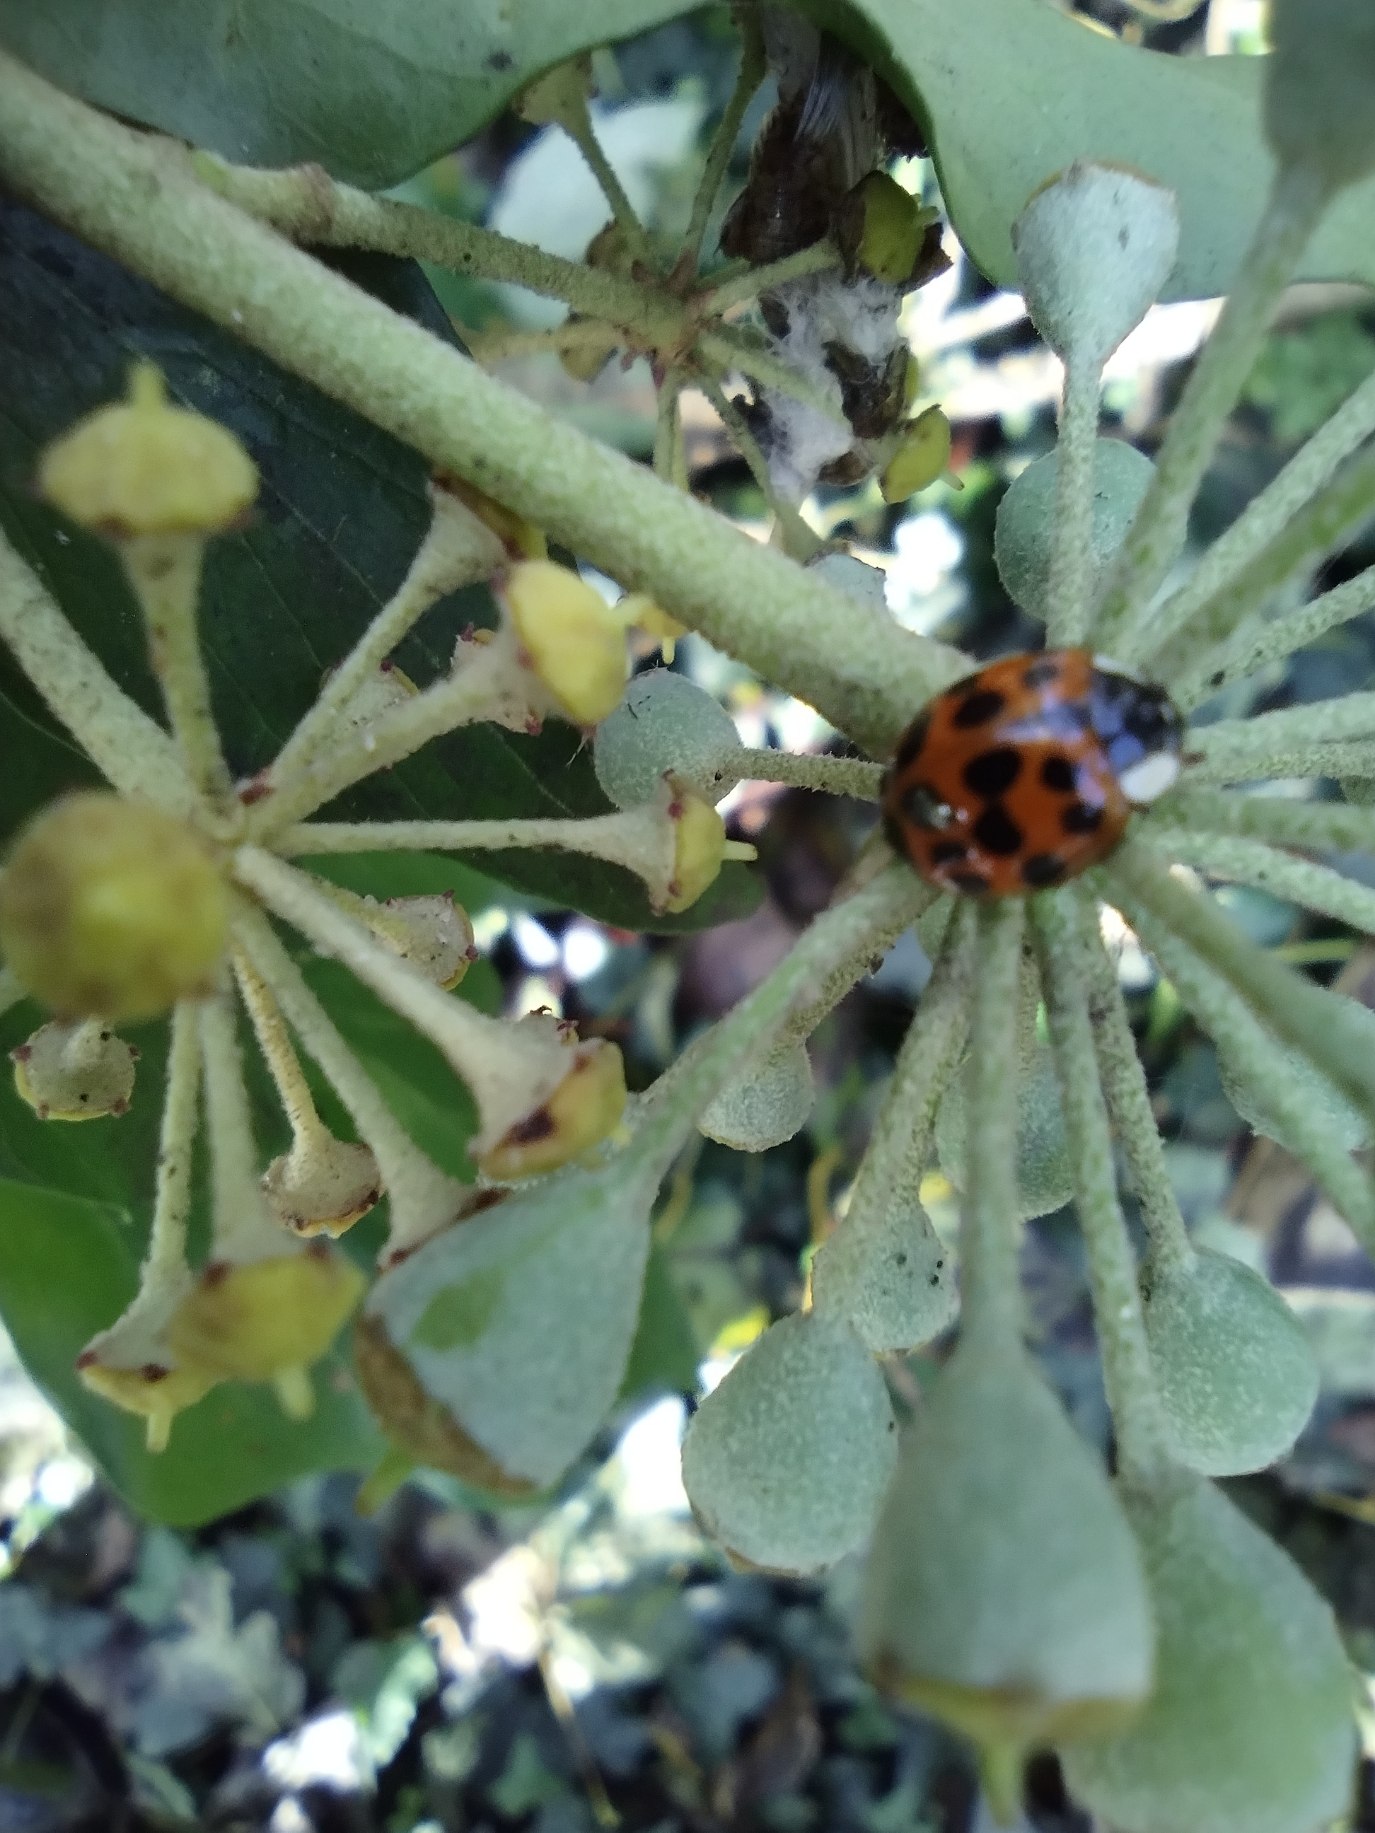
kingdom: Animalia
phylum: Arthropoda
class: Insecta
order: Coleoptera
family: Coccinellidae
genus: Harmonia
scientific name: Harmonia axyridis
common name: Harlekinmariehøne
